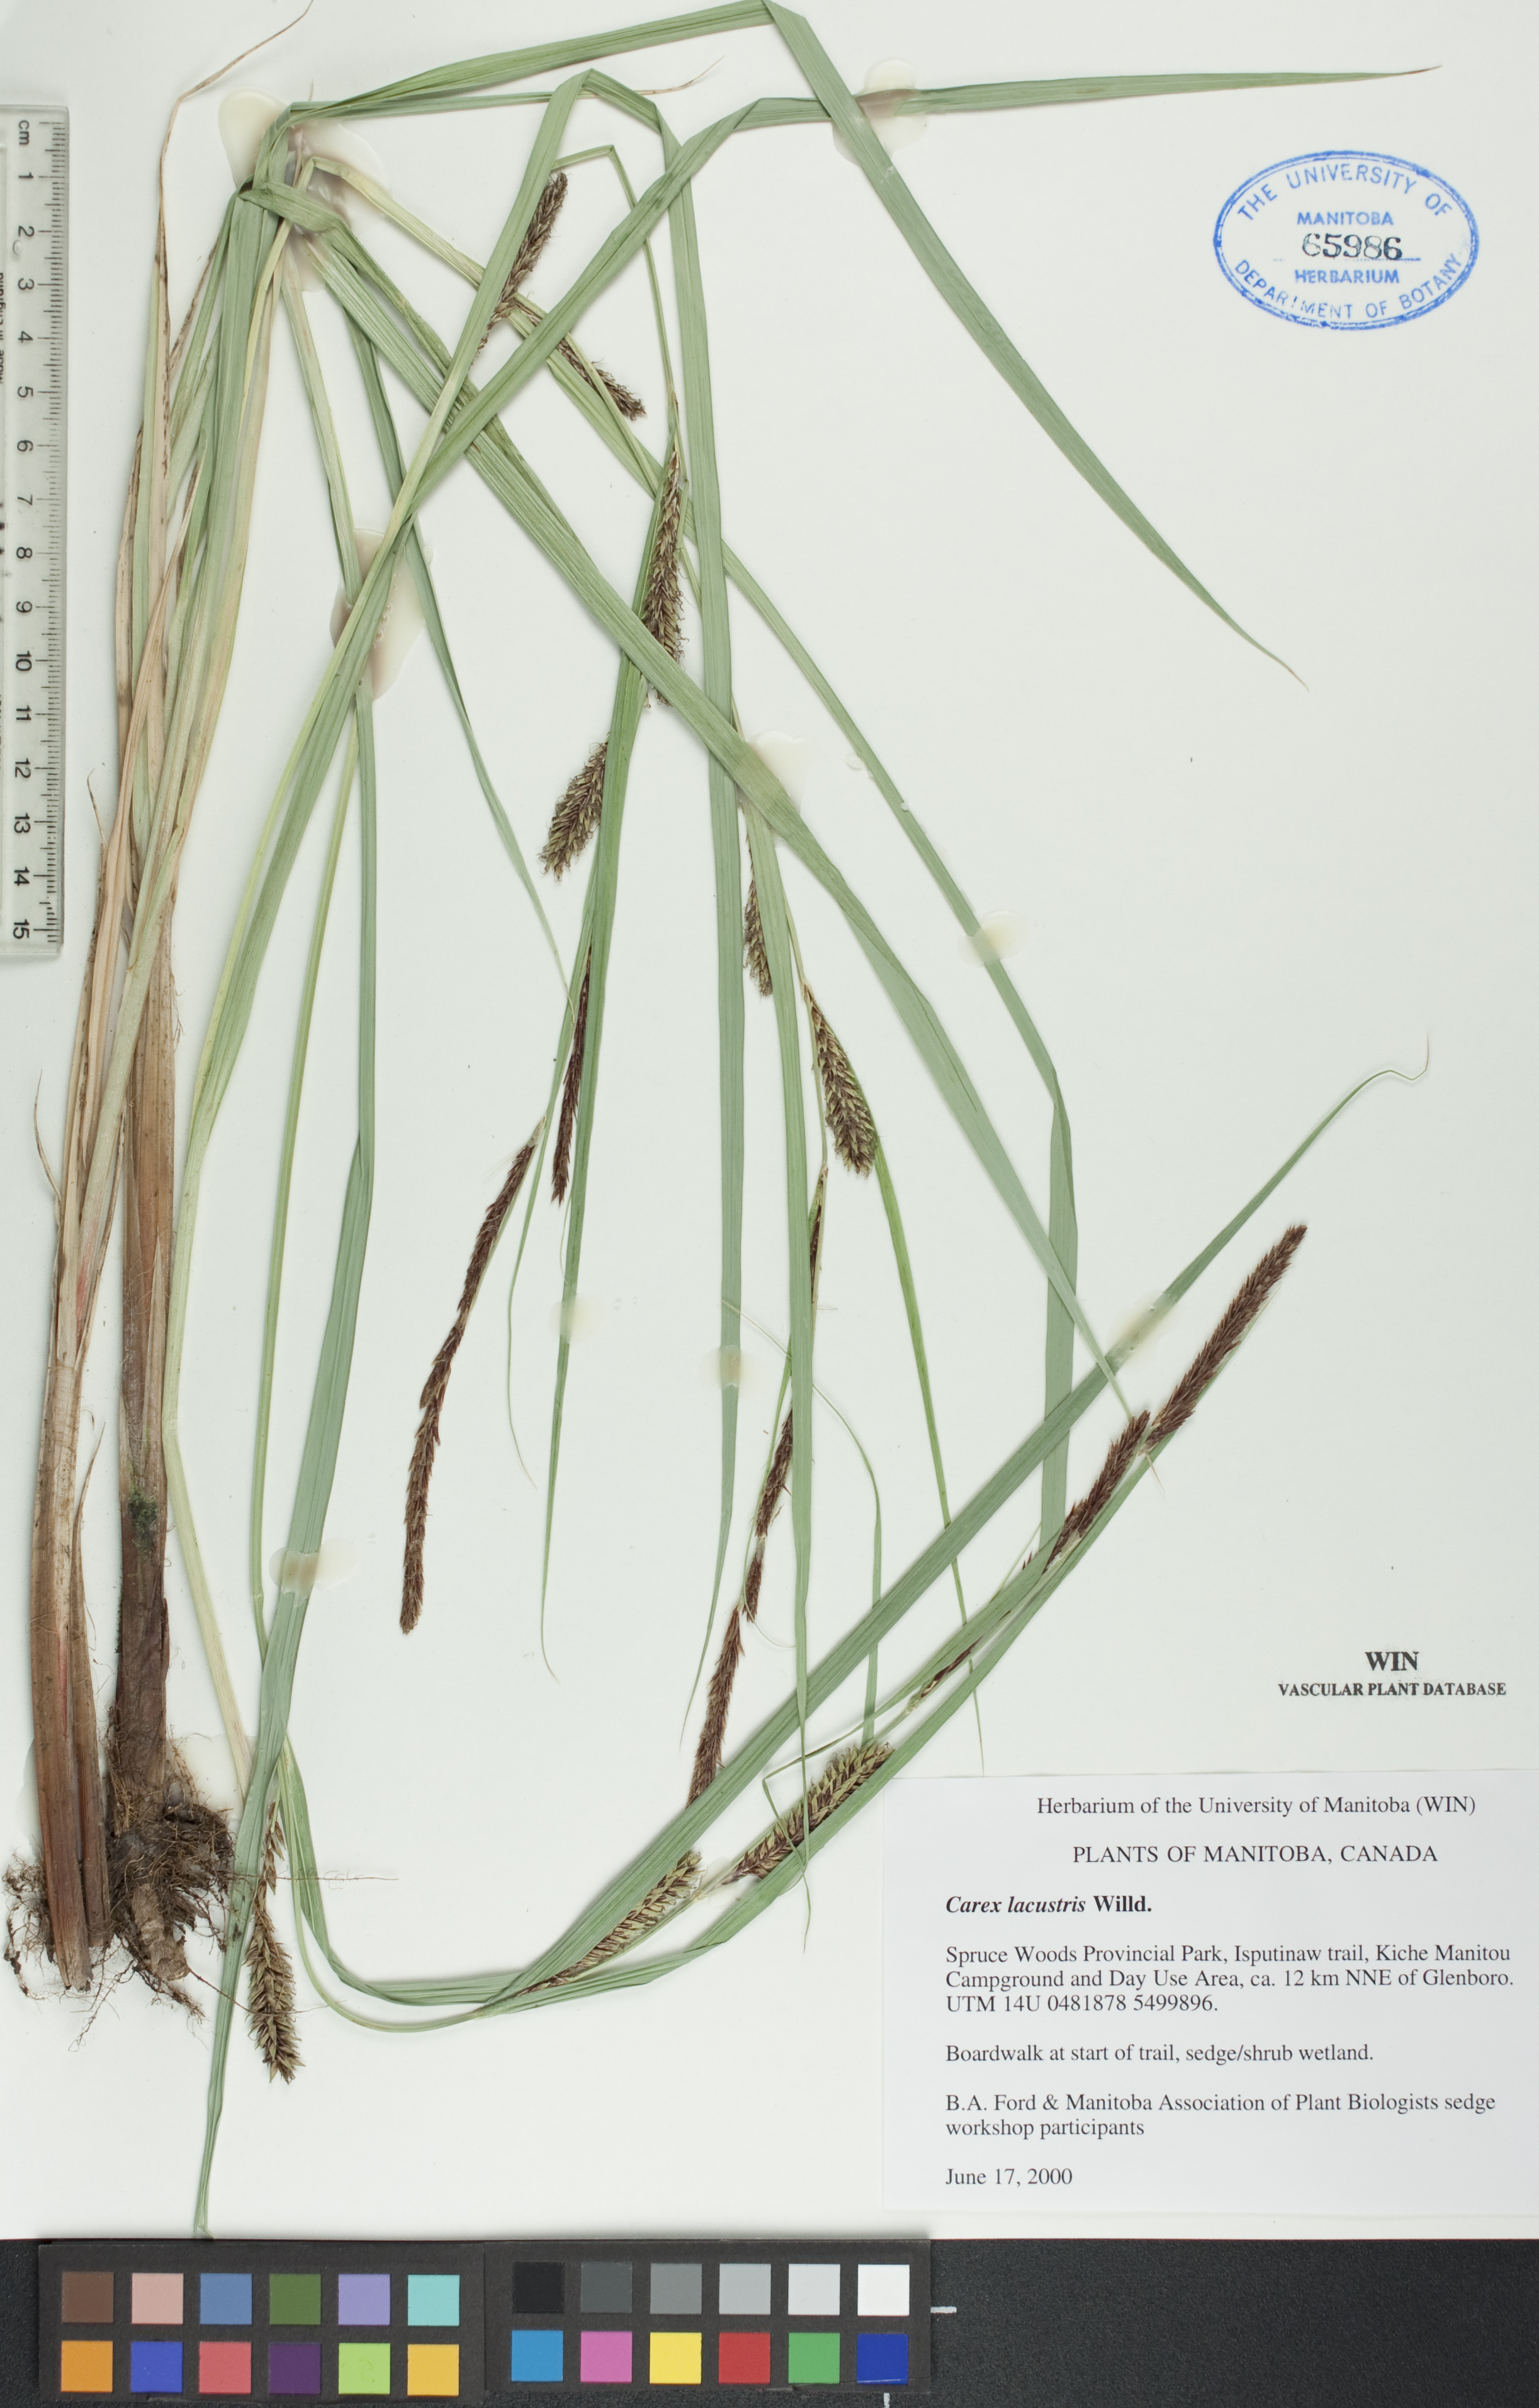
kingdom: Plantae
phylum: Tracheophyta
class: Liliopsida
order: Poales
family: Cyperaceae
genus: Carex
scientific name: Carex lacustris
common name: Common lake sedge
